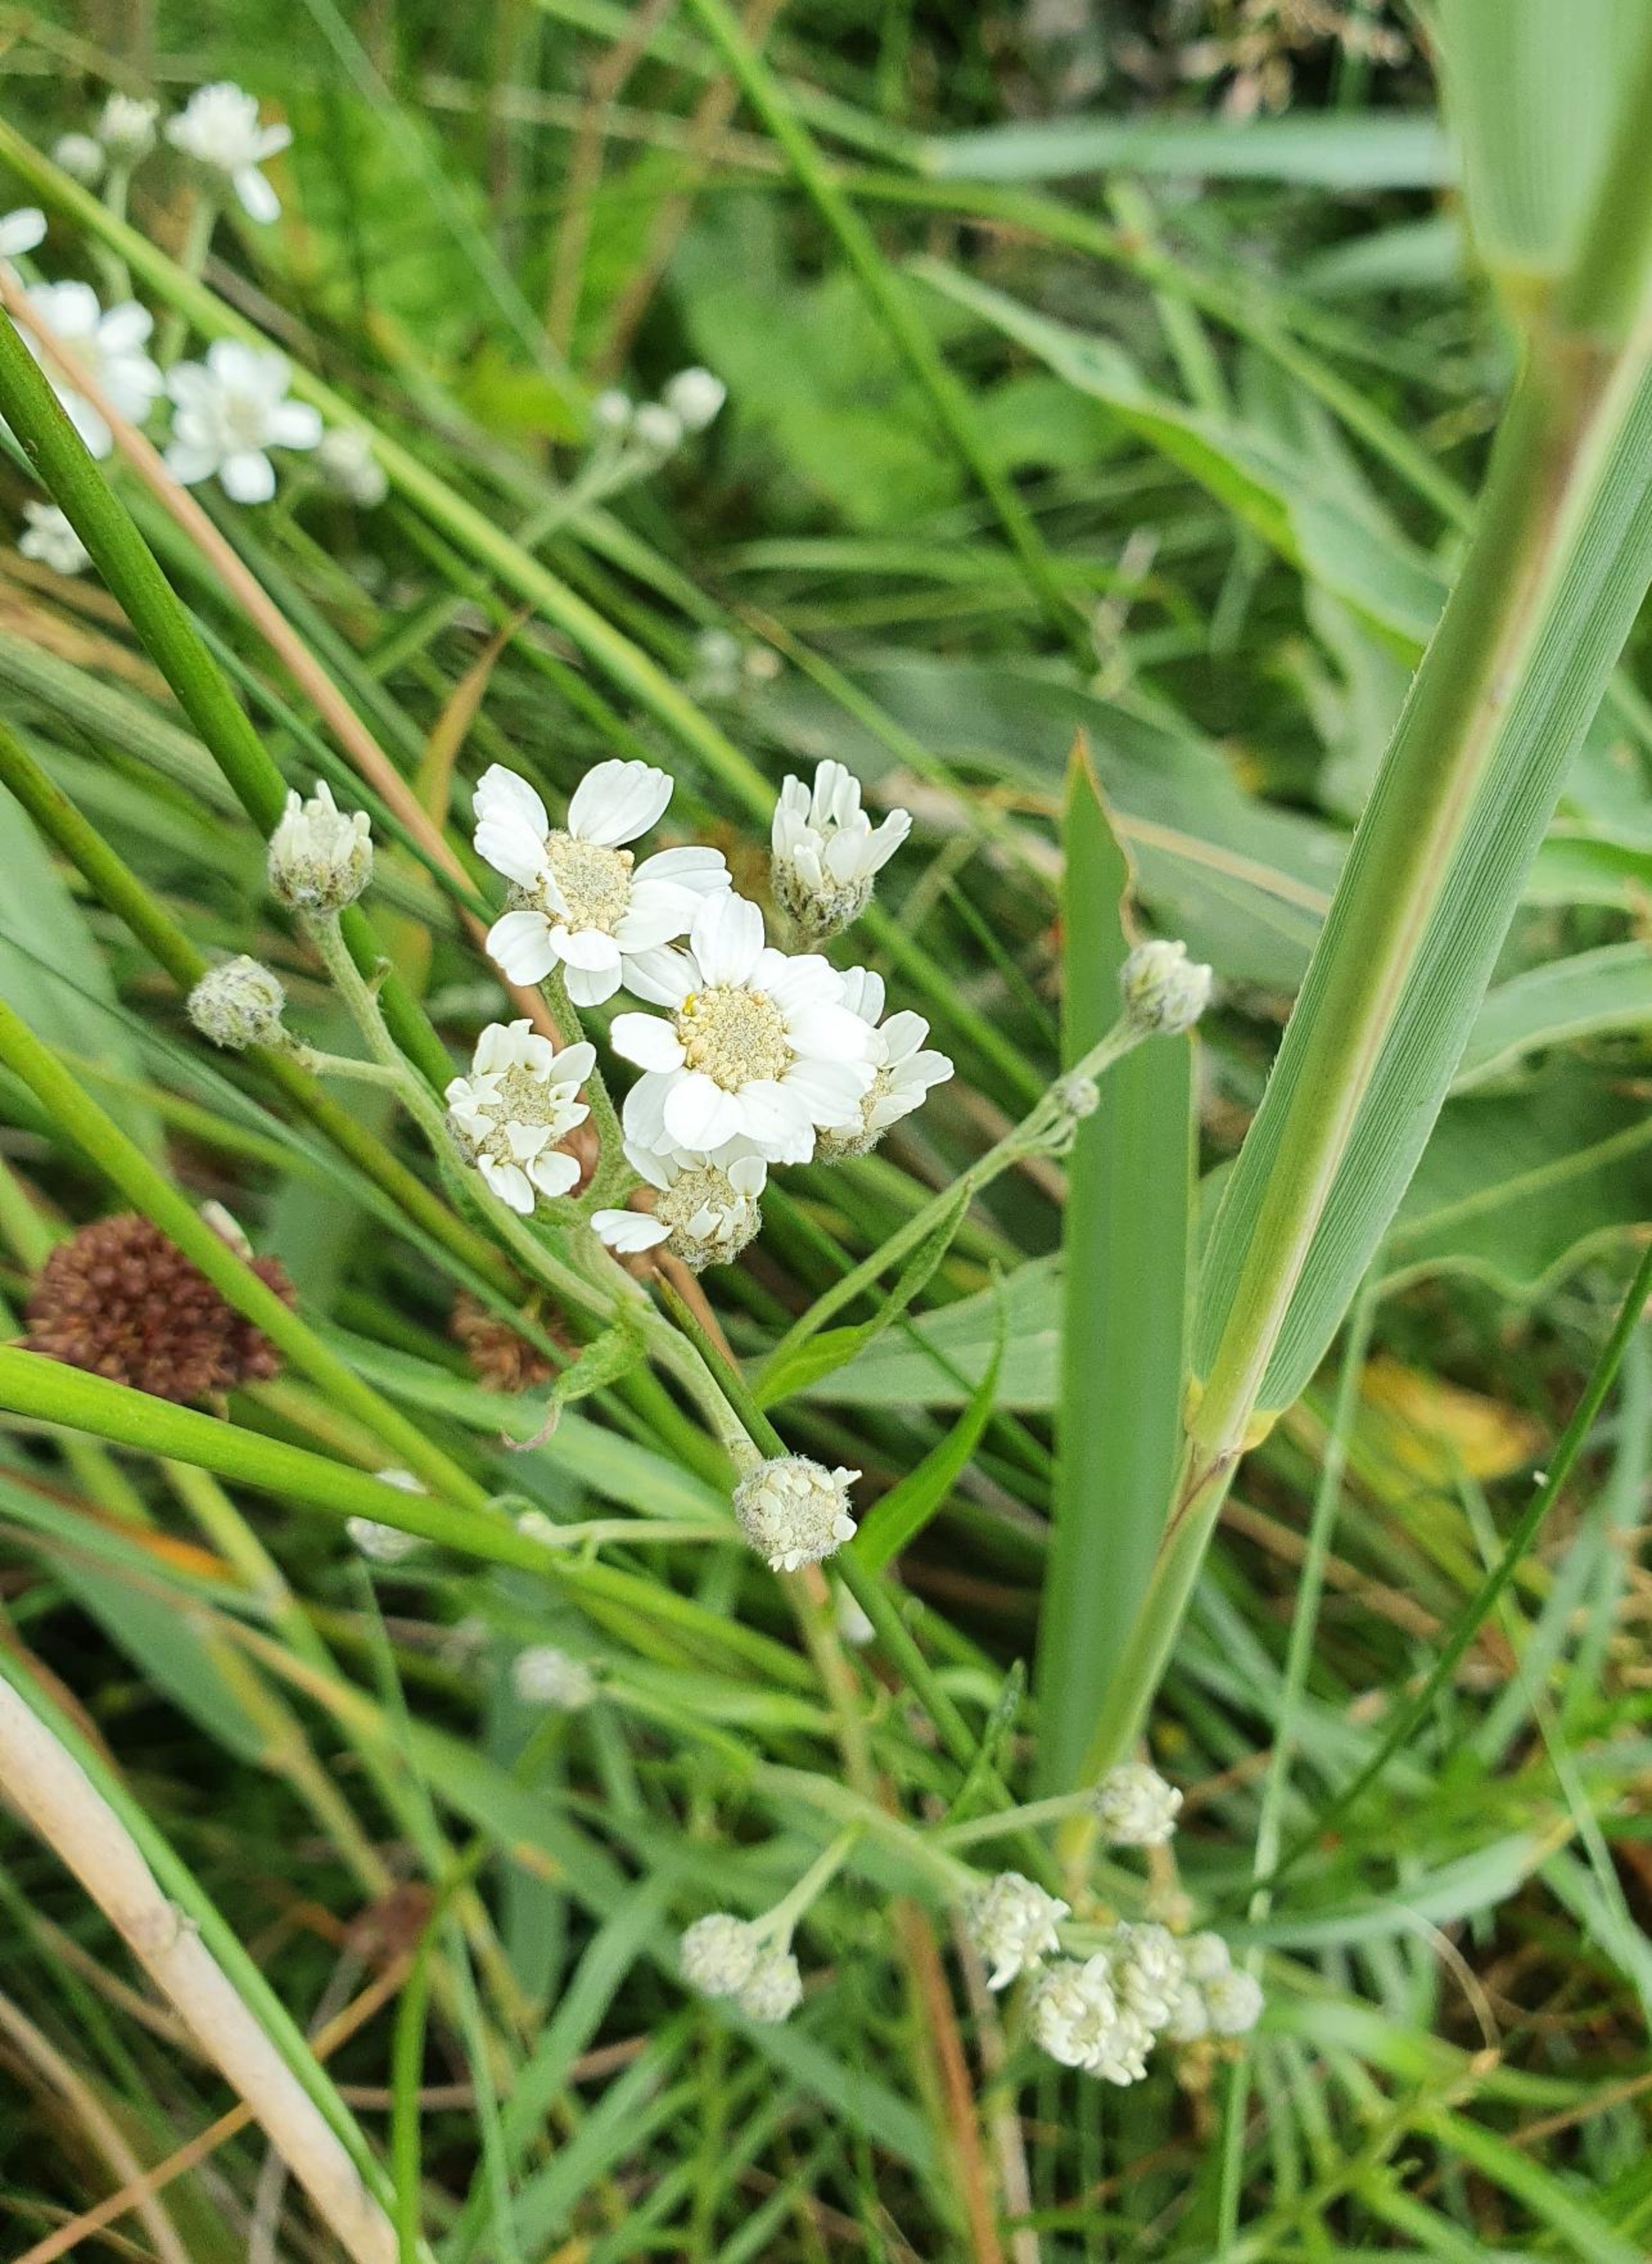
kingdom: Plantae
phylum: Tracheophyta
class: Magnoliopsida
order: Asterales
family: Asteraceae
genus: Achillea
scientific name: Achillea ptarmica
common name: Nyse-røllike
